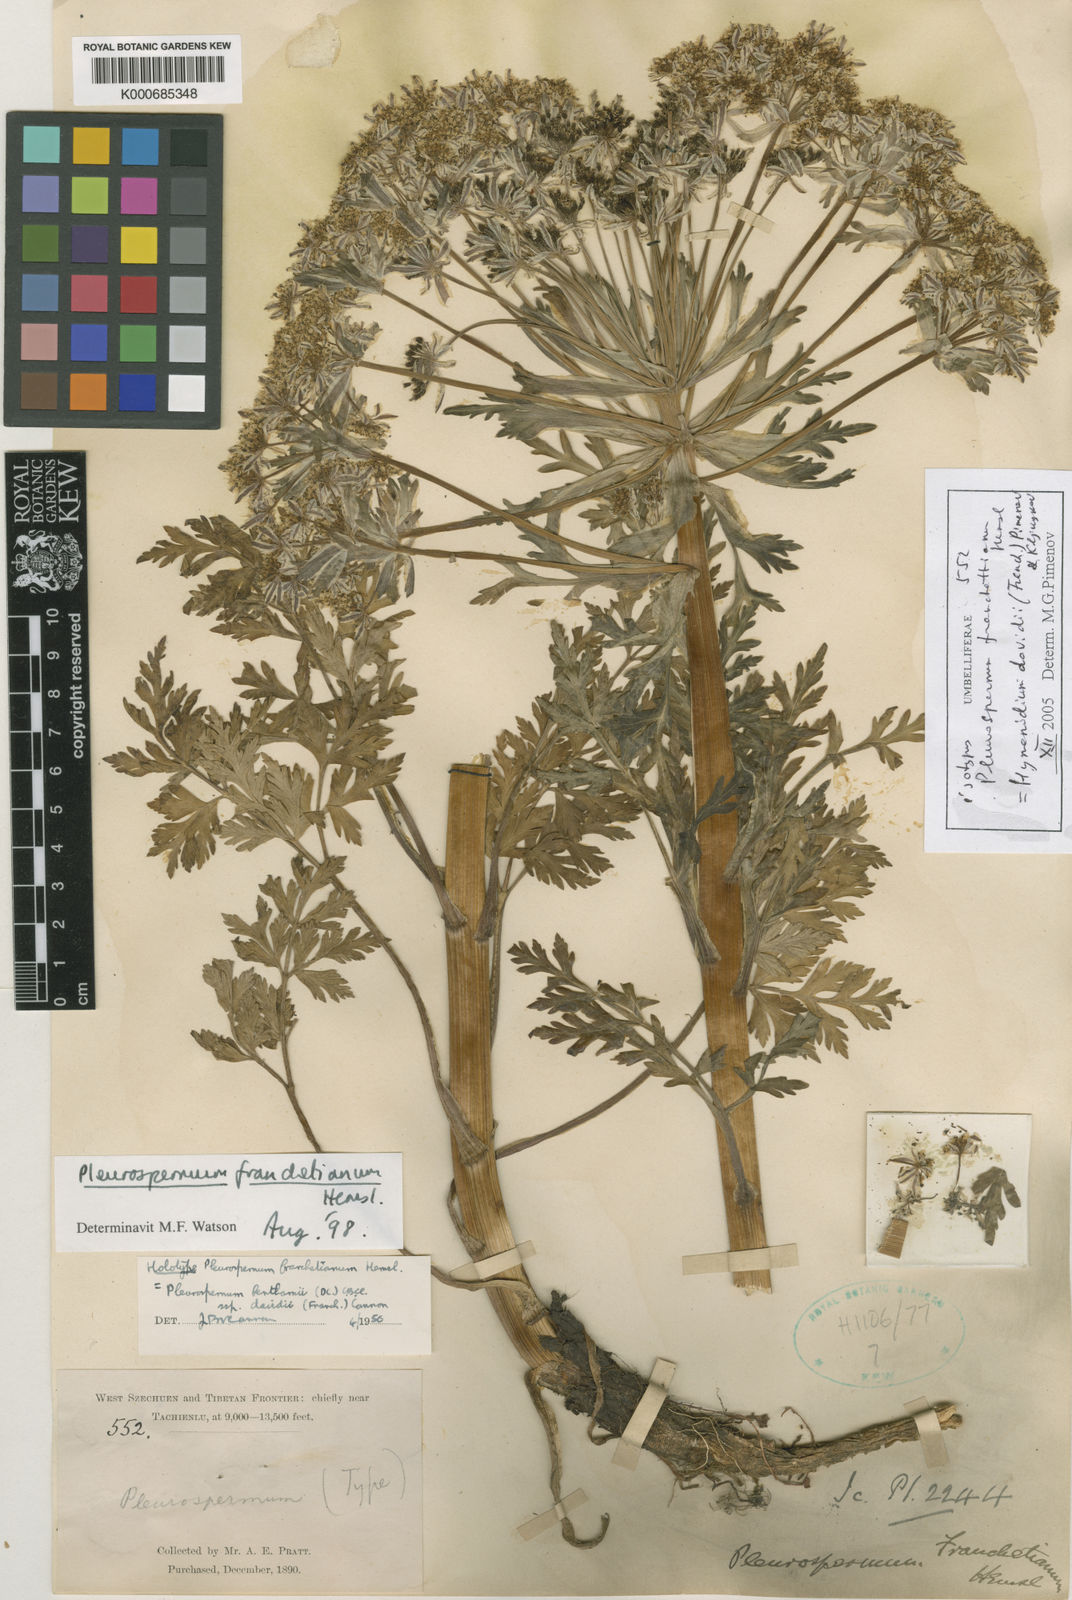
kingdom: Plantae
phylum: Tracheophyta
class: Magnoliopsida
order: Apiales
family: Apiaceae
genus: Hymenidium
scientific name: Hymenidium
